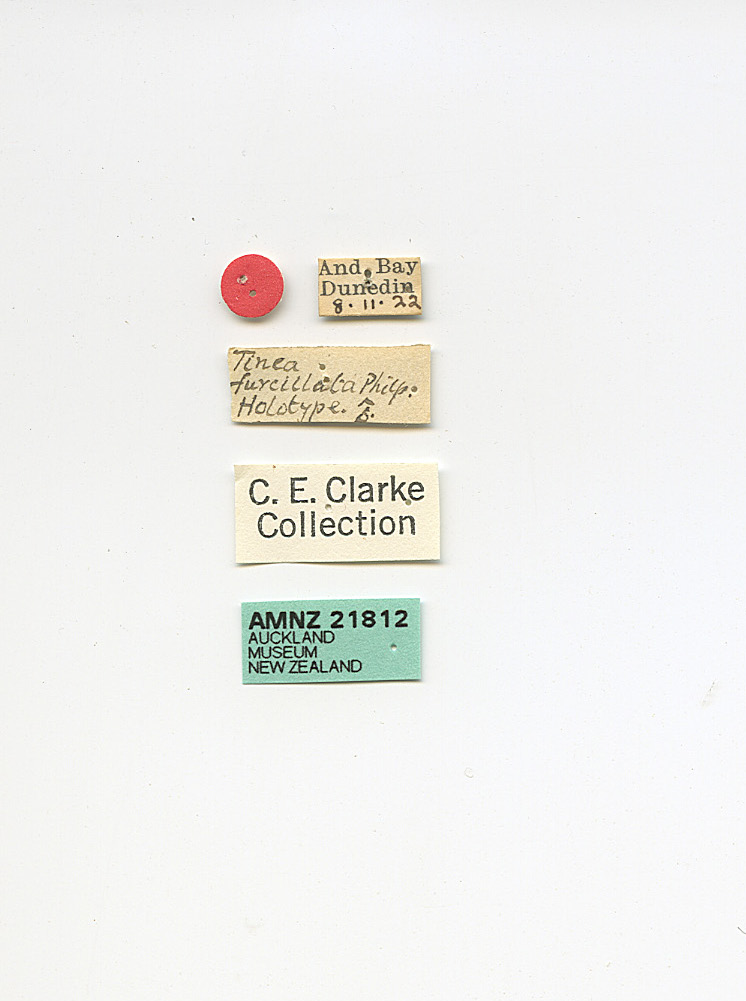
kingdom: Animalia
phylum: Arthropoda
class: Insecta
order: Lepidoptera
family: Tineidae
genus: Tinea
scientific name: Tinea furcillata
